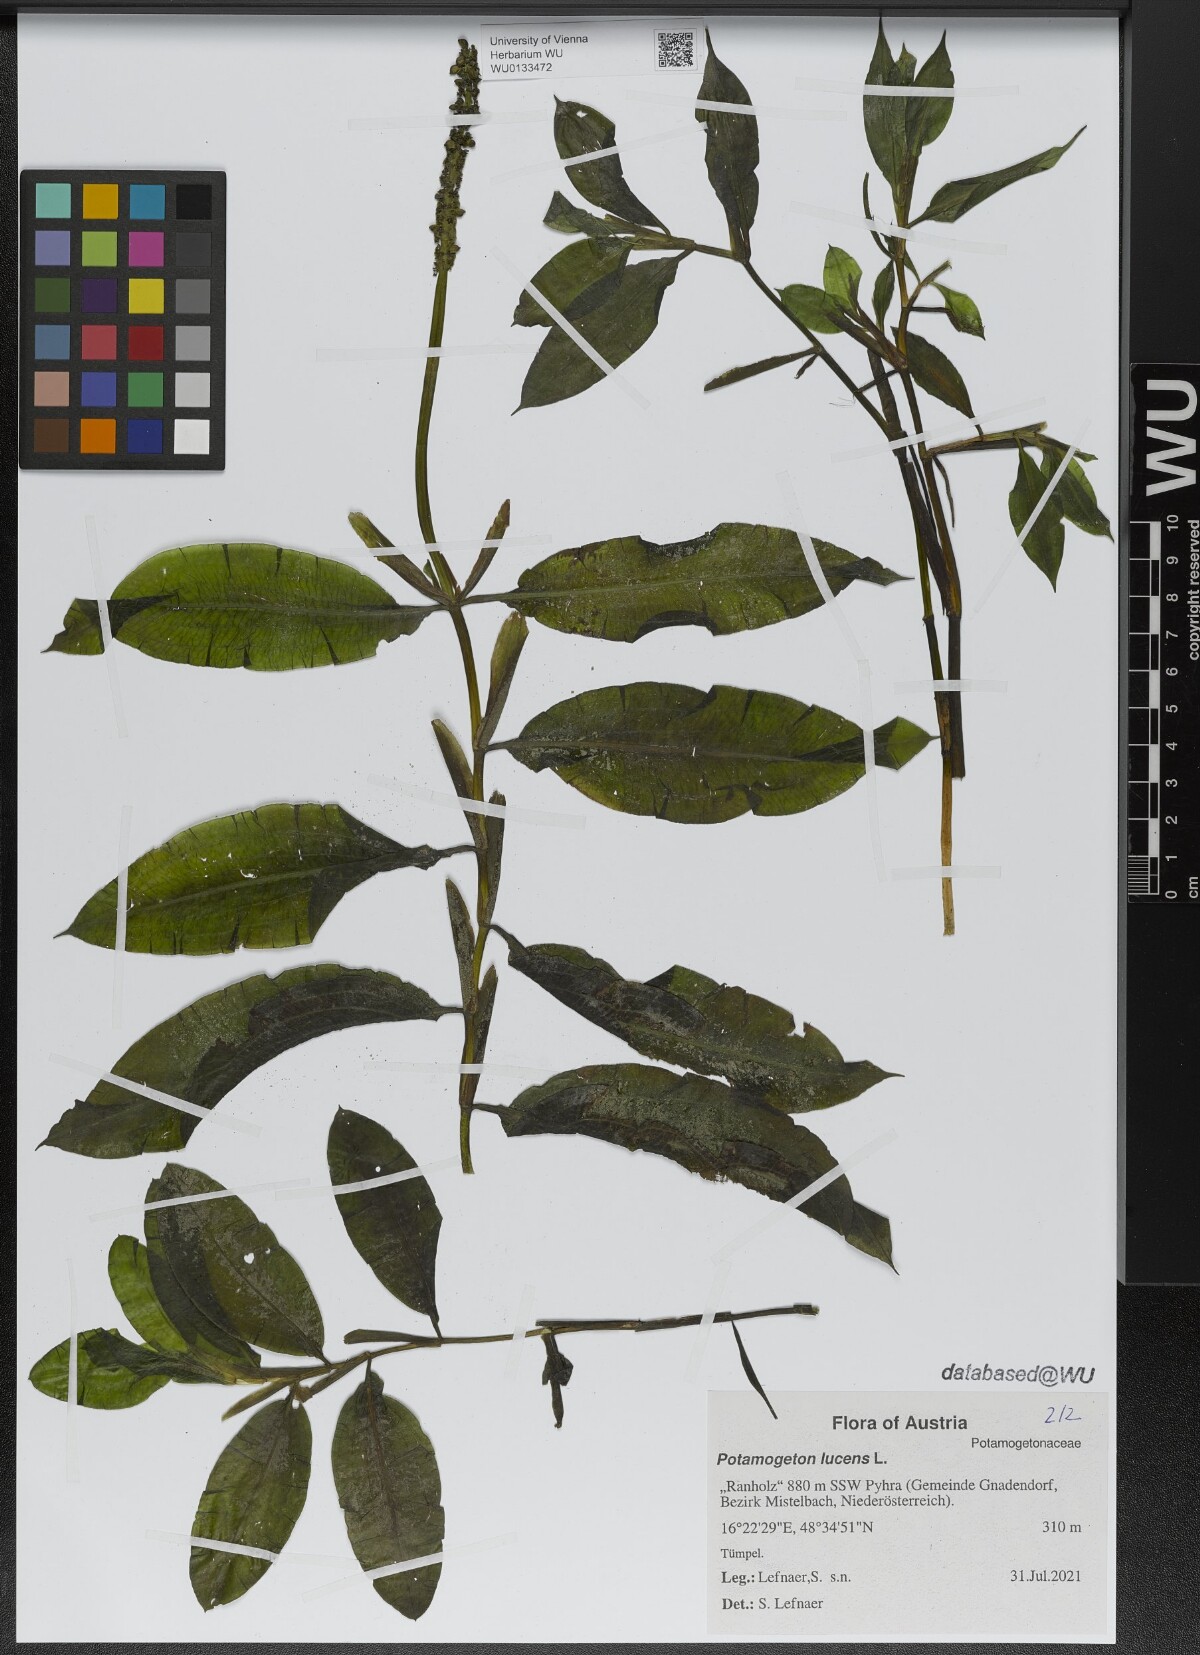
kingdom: Plantae
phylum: Tracheophyta
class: Liliopsida
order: Alismatales
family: Potamogetonaceae
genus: Potamogeton
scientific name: Potamogeton lucens
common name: Shining pondweed
